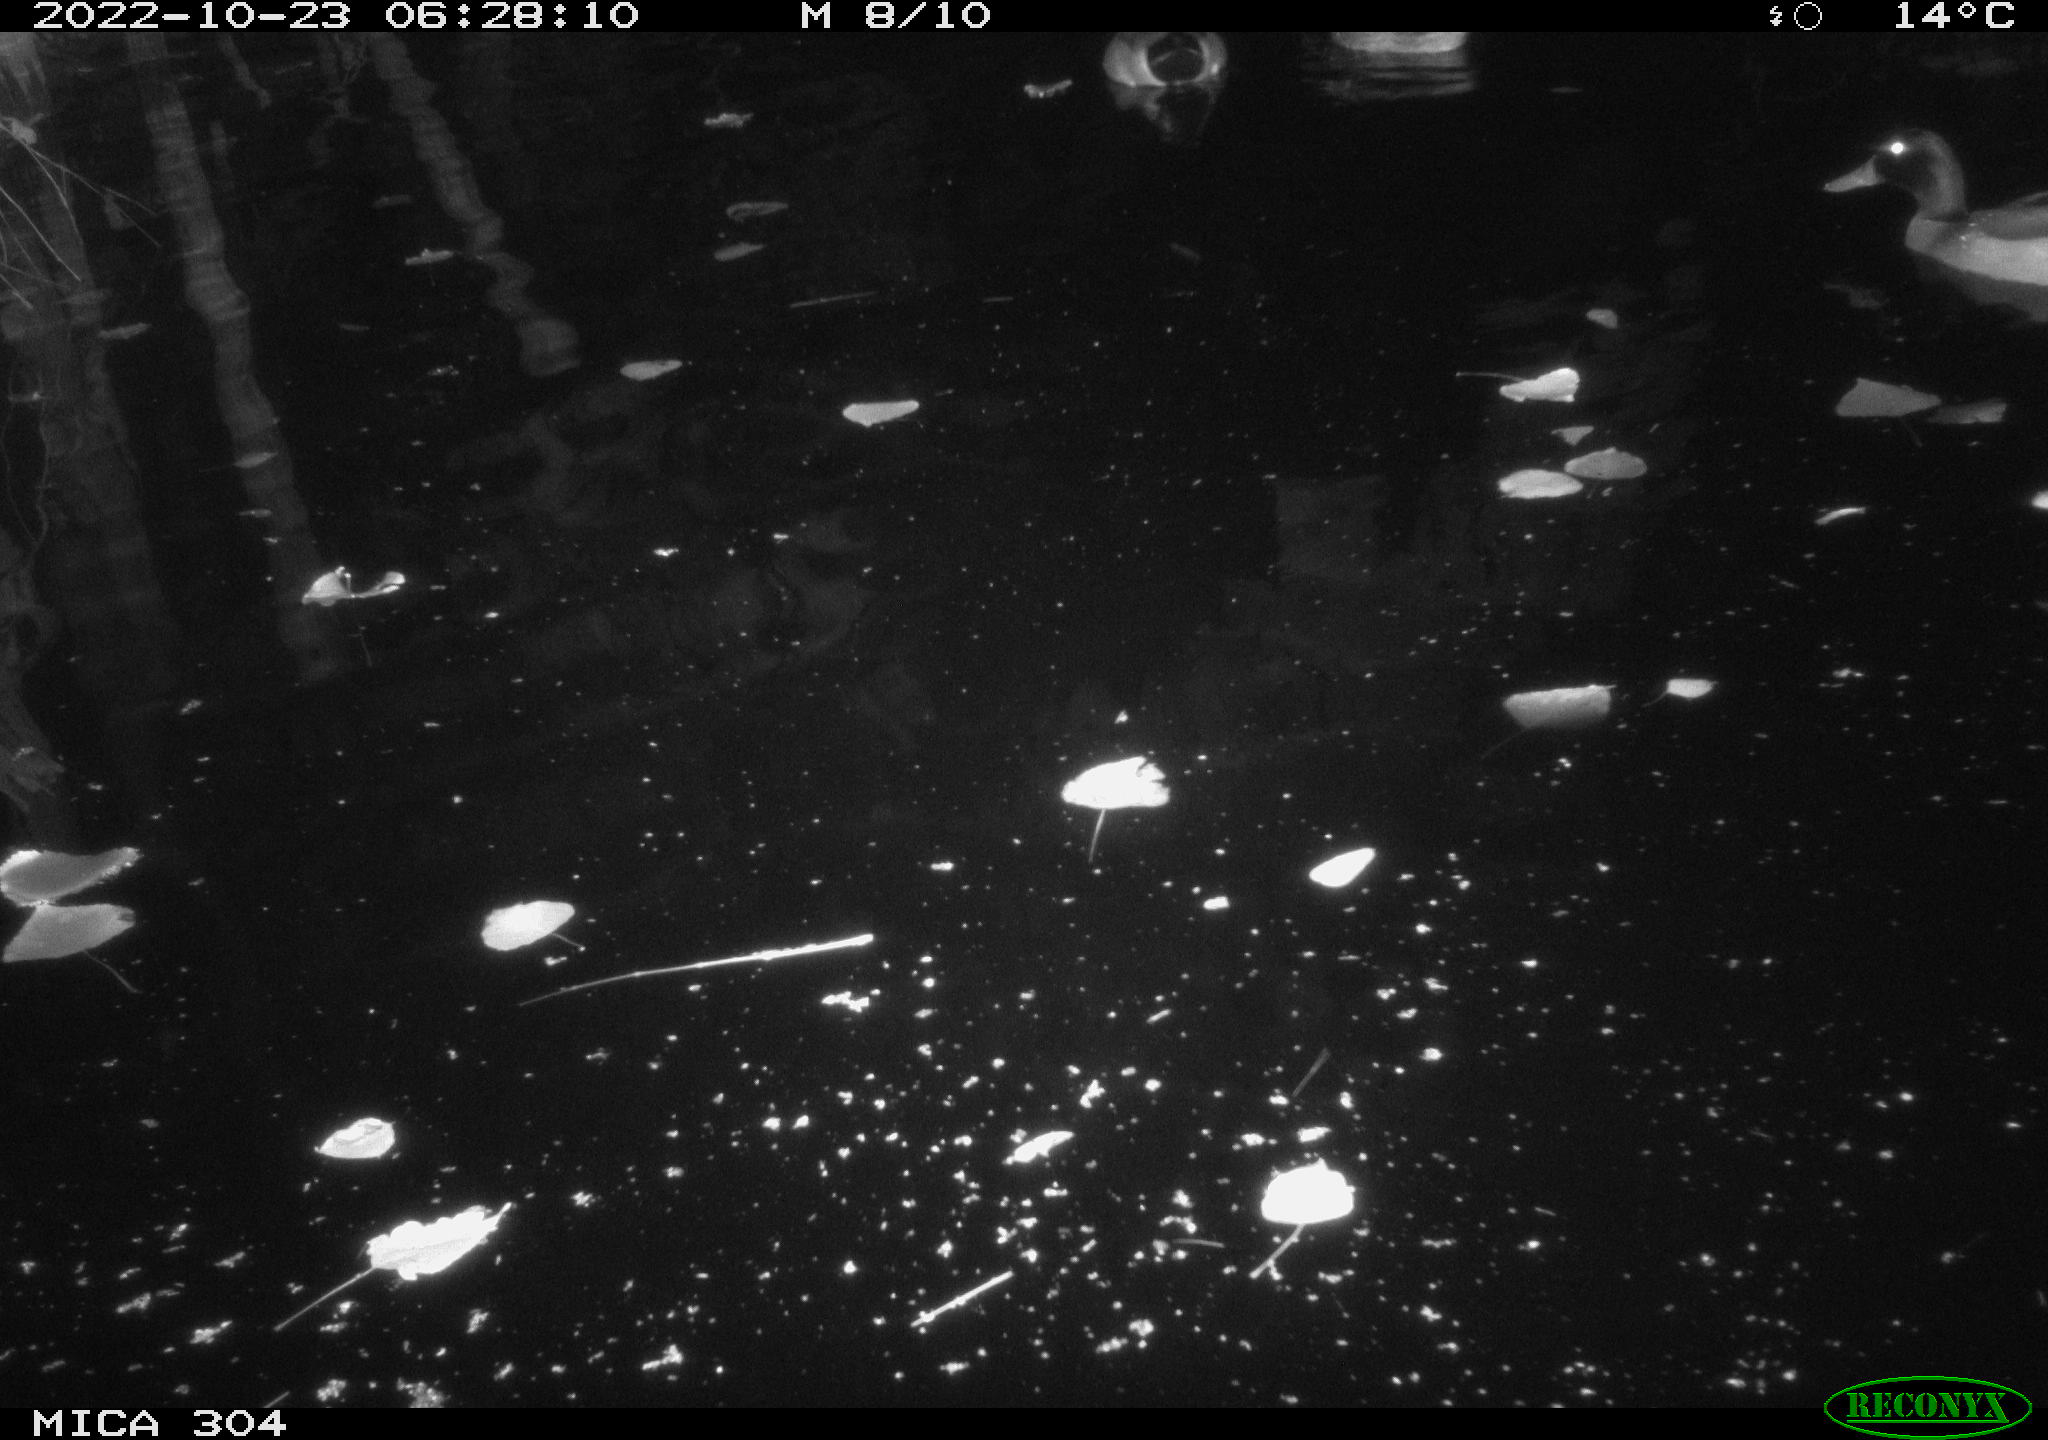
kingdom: Animalia
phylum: Chordata
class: Aves
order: Anseriformes
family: Anatidae
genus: Anas
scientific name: Anas
